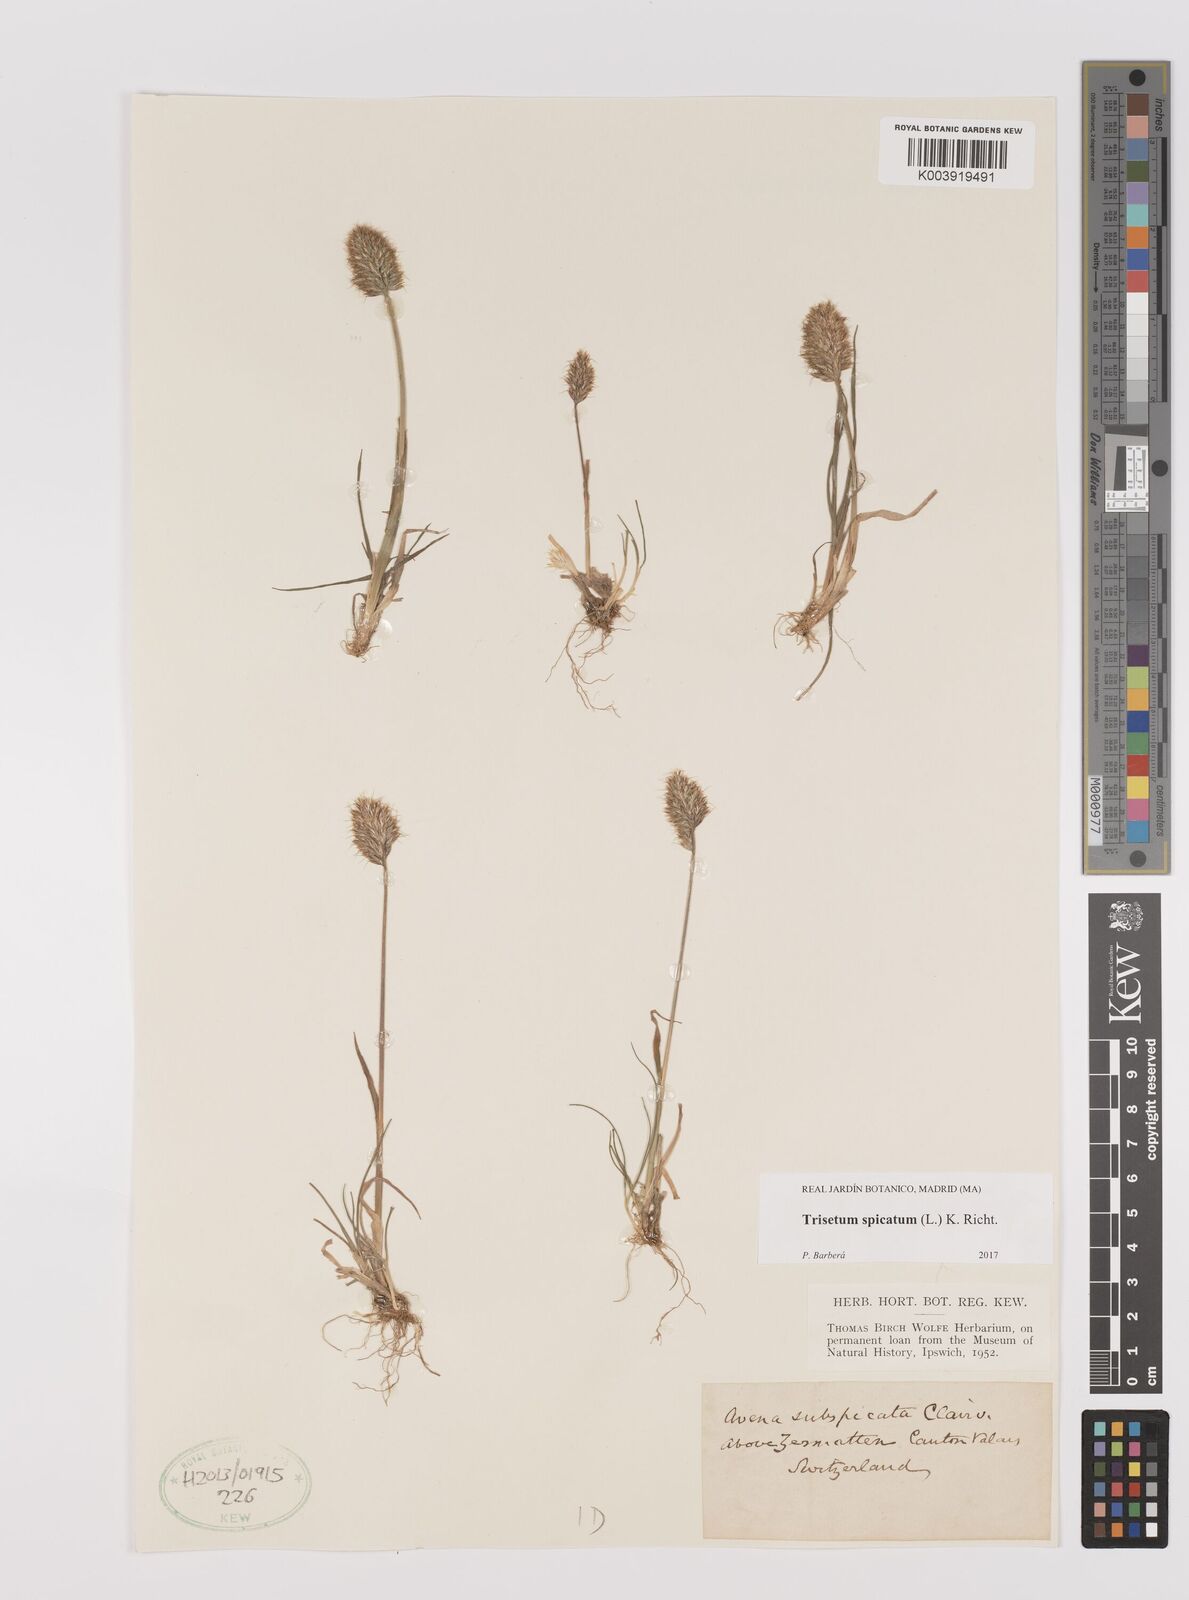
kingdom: Plantae
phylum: Tracheophyta
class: Liliopsida
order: Poales
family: Poaceae
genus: Koeleria
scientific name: Koeleria spicata
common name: Mountain trisetum
